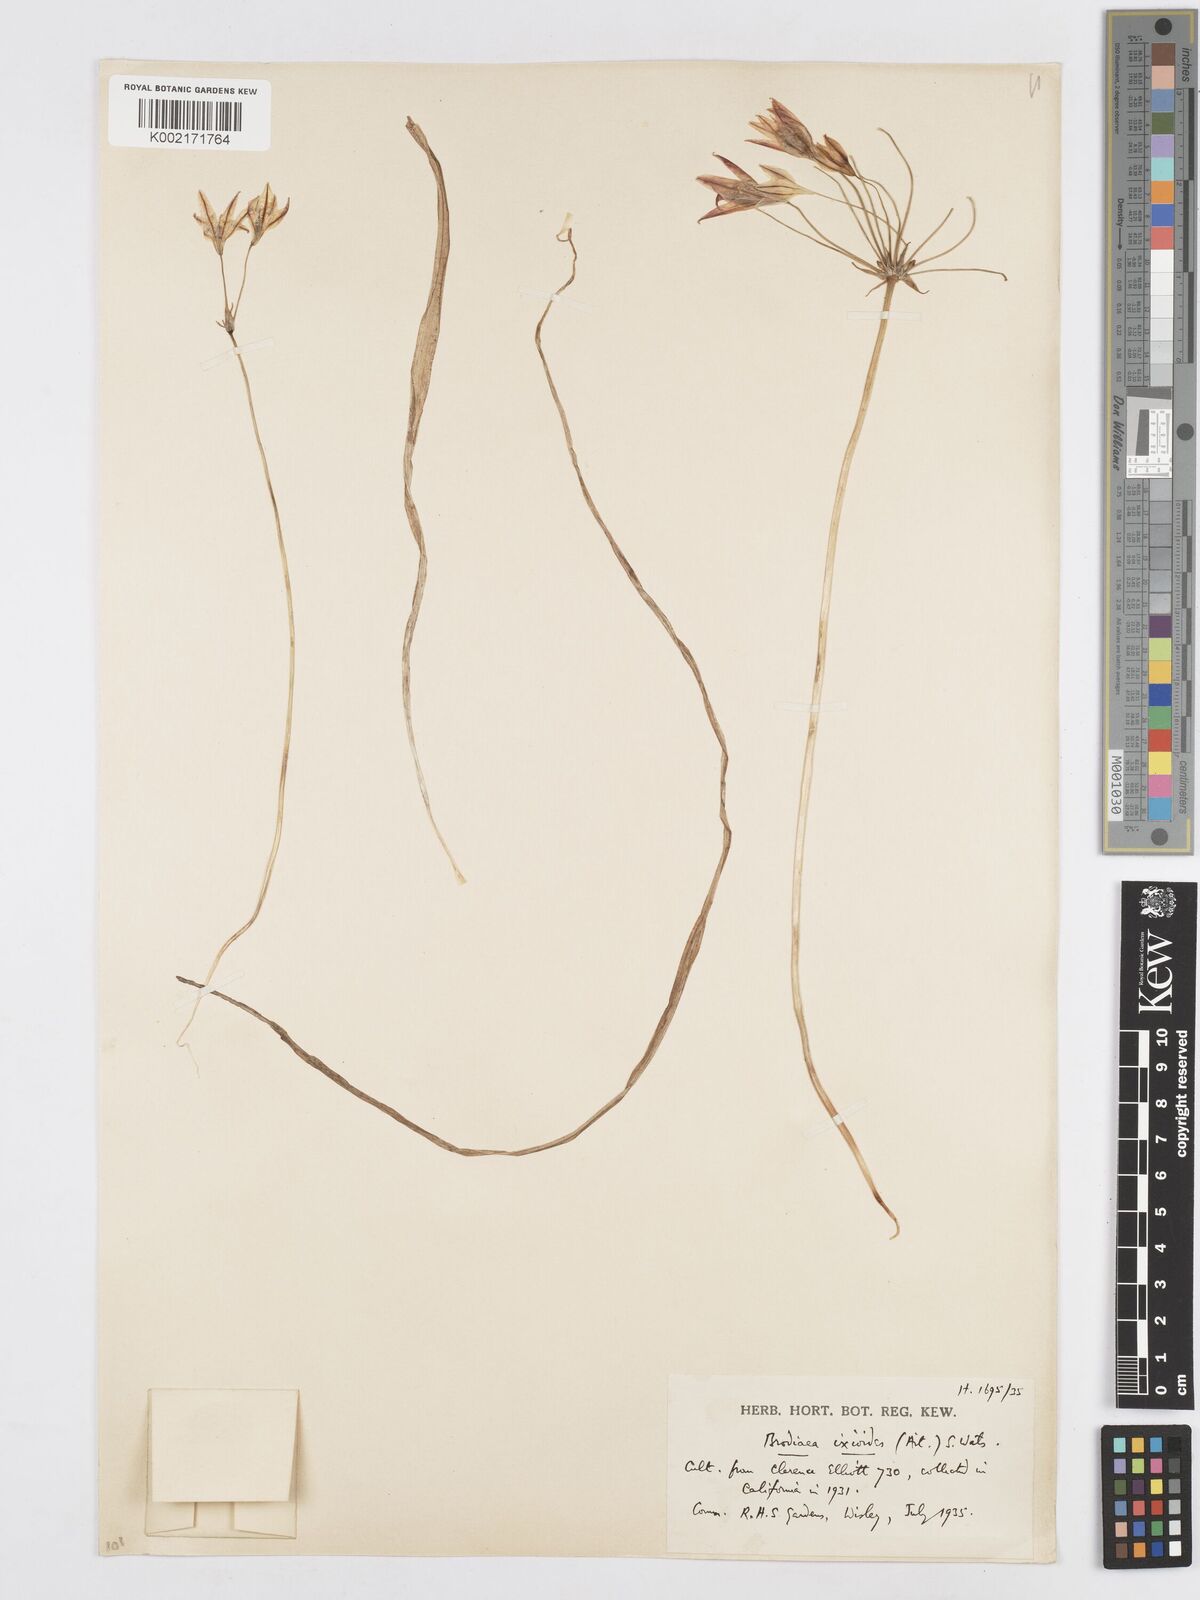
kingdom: Plantae
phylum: Tracheophyta
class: Liliopsida
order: Asparagales
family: Asparagaceae
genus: Triteleia
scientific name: Triteleia ixioides
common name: Yellow-brodiaea
